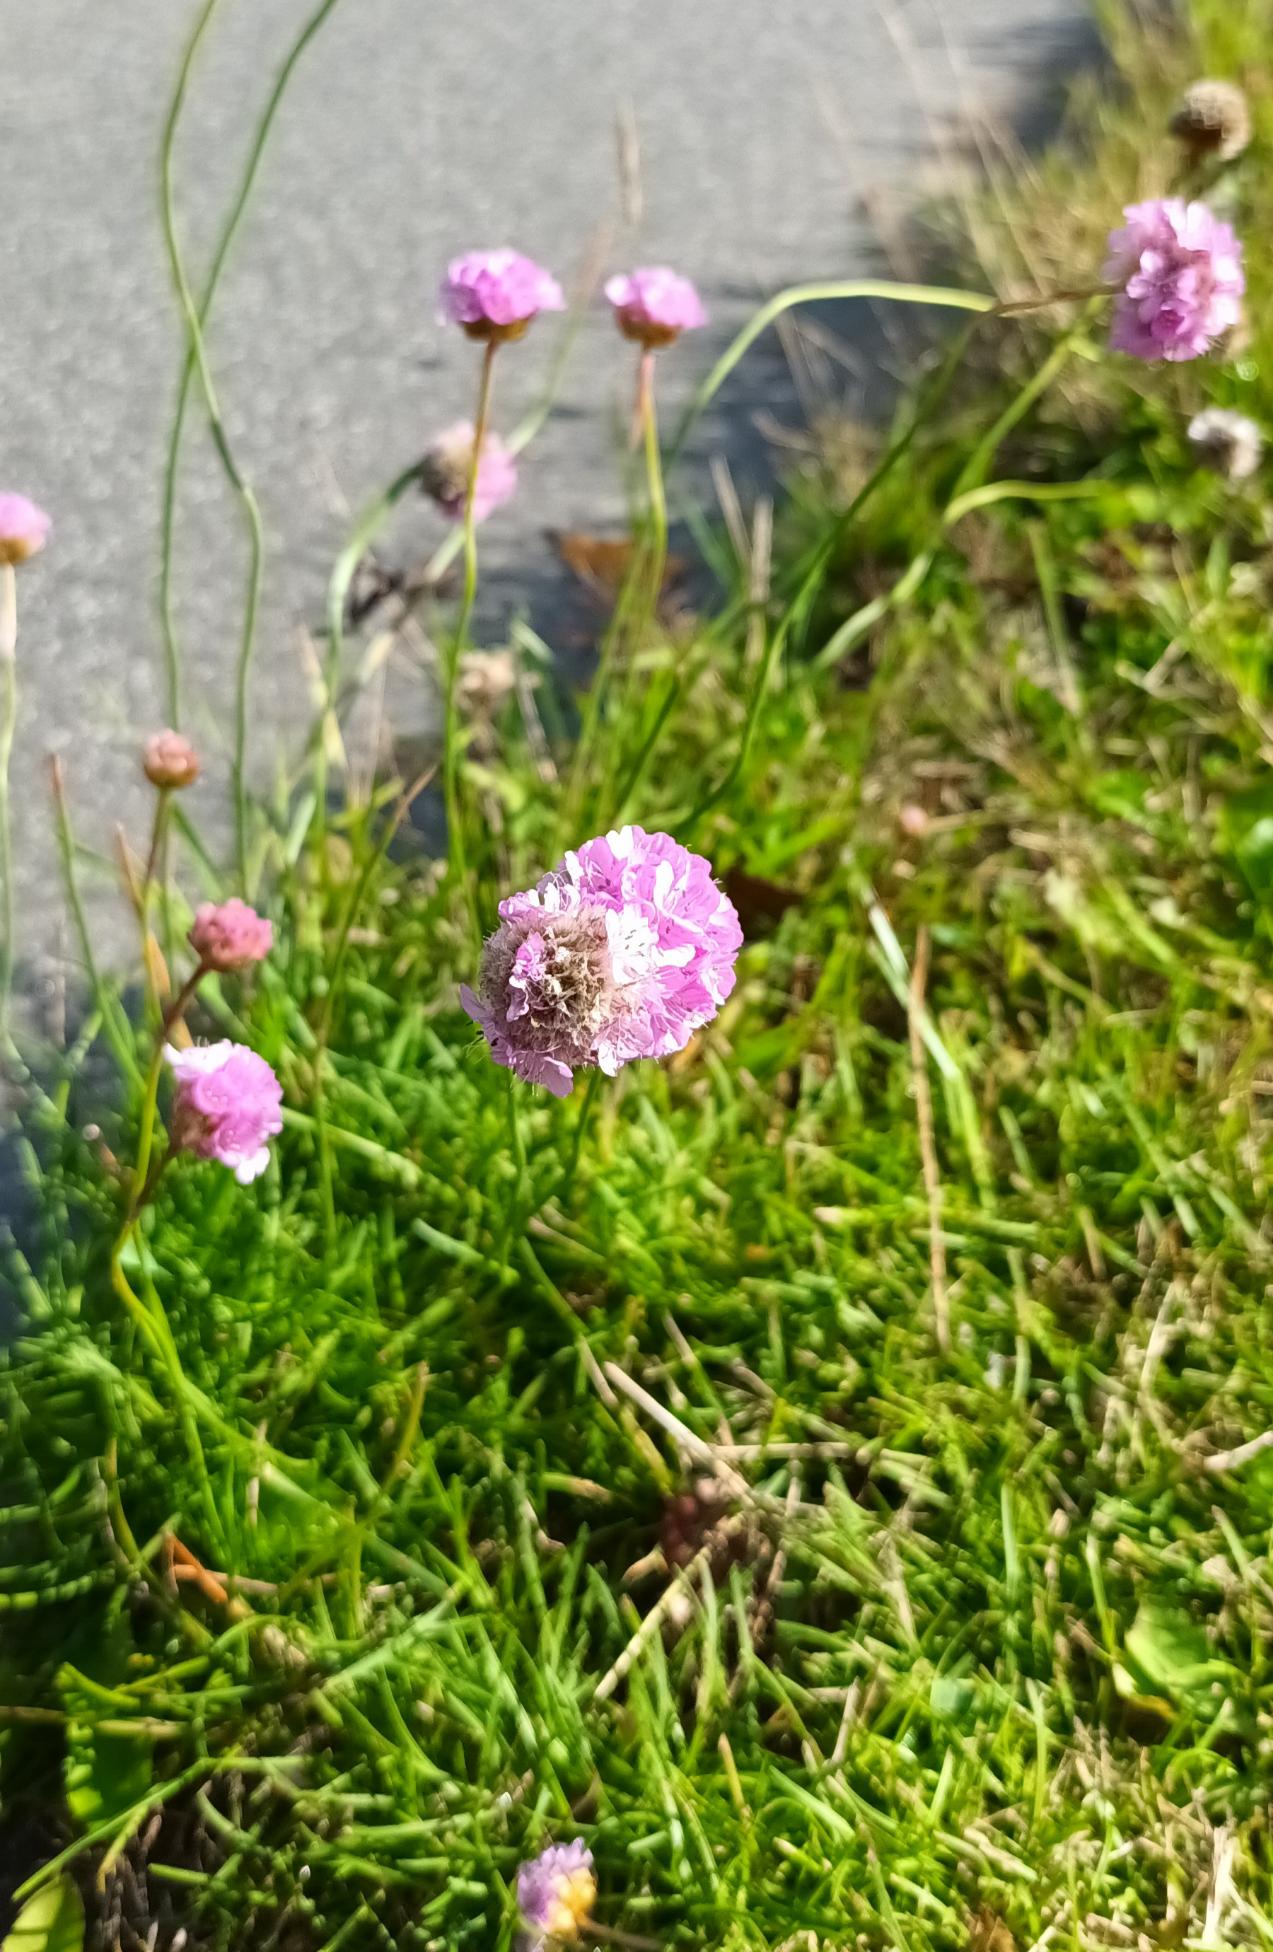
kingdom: Plantae
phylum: Tracheophyta
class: Magnoliopsida
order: Caryophyllales
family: Plumbaginaceae
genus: Armeria
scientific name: Armeria maritima
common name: Engelskgræs
